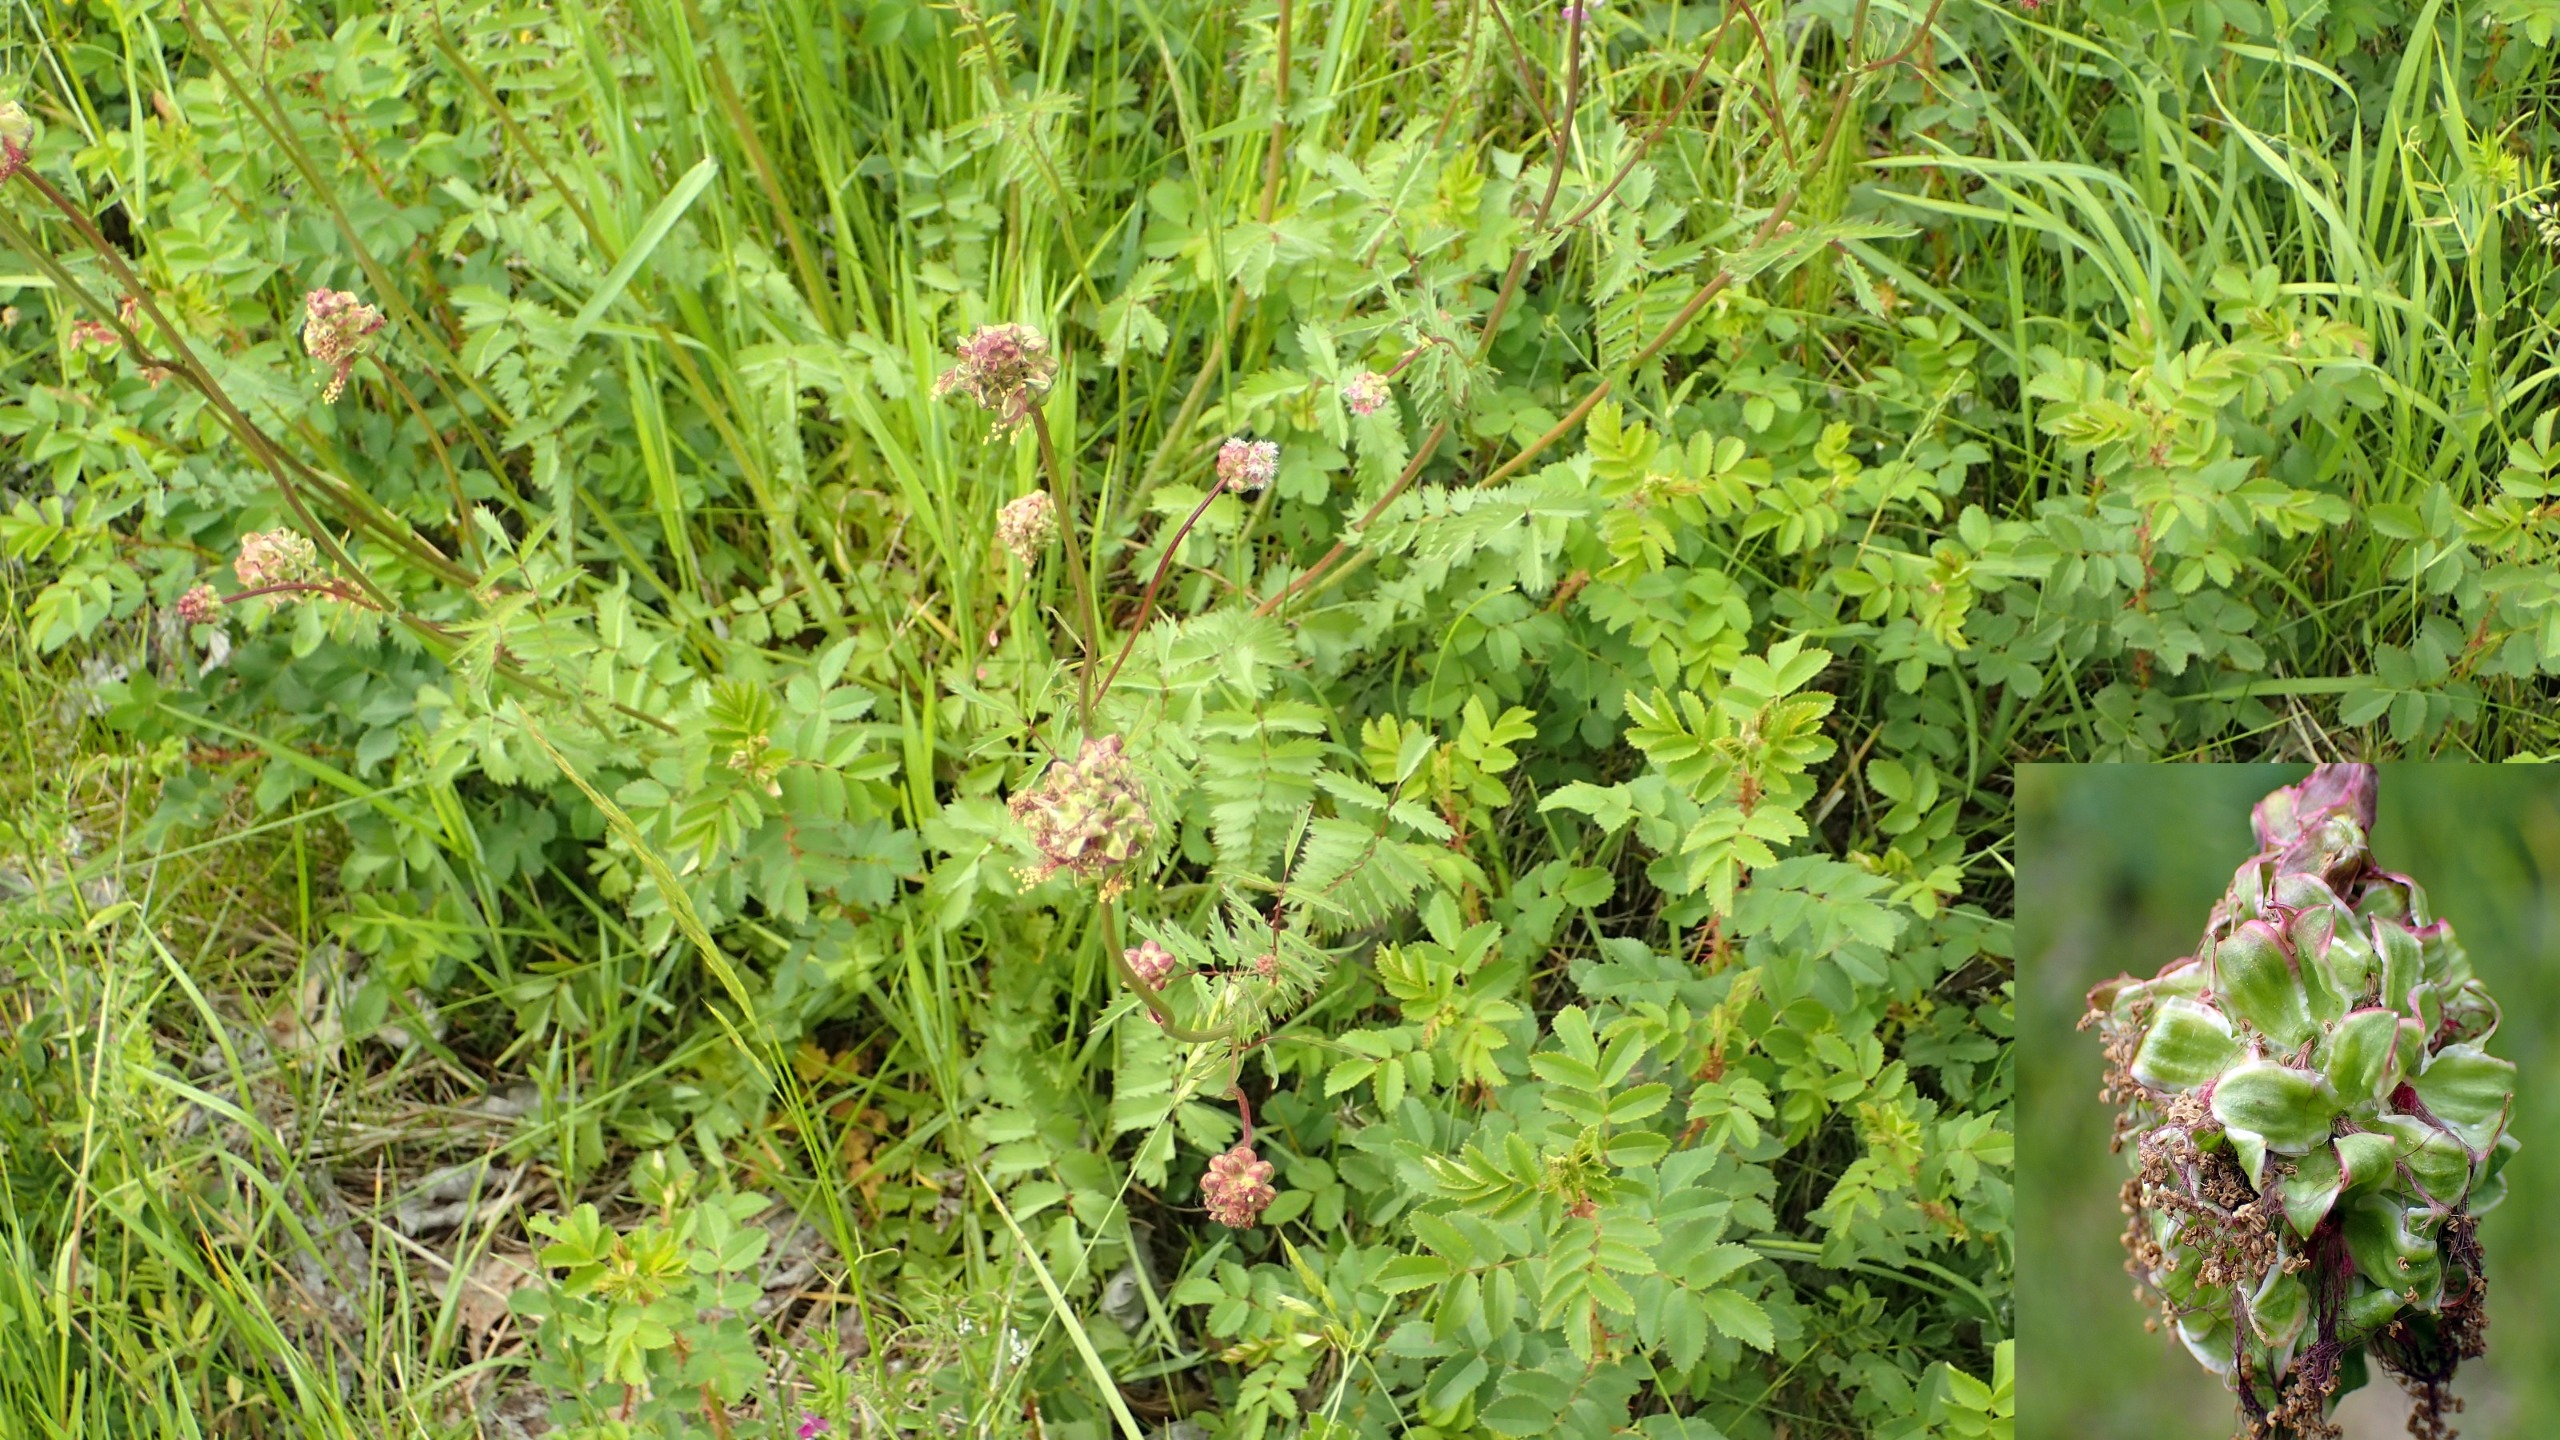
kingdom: Plantae
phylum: Tracheophyta
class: Magnoliopsida
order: Rosales
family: Rosaceae
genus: Poterium
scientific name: Poterium sanguisorba
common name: Bibernelle
